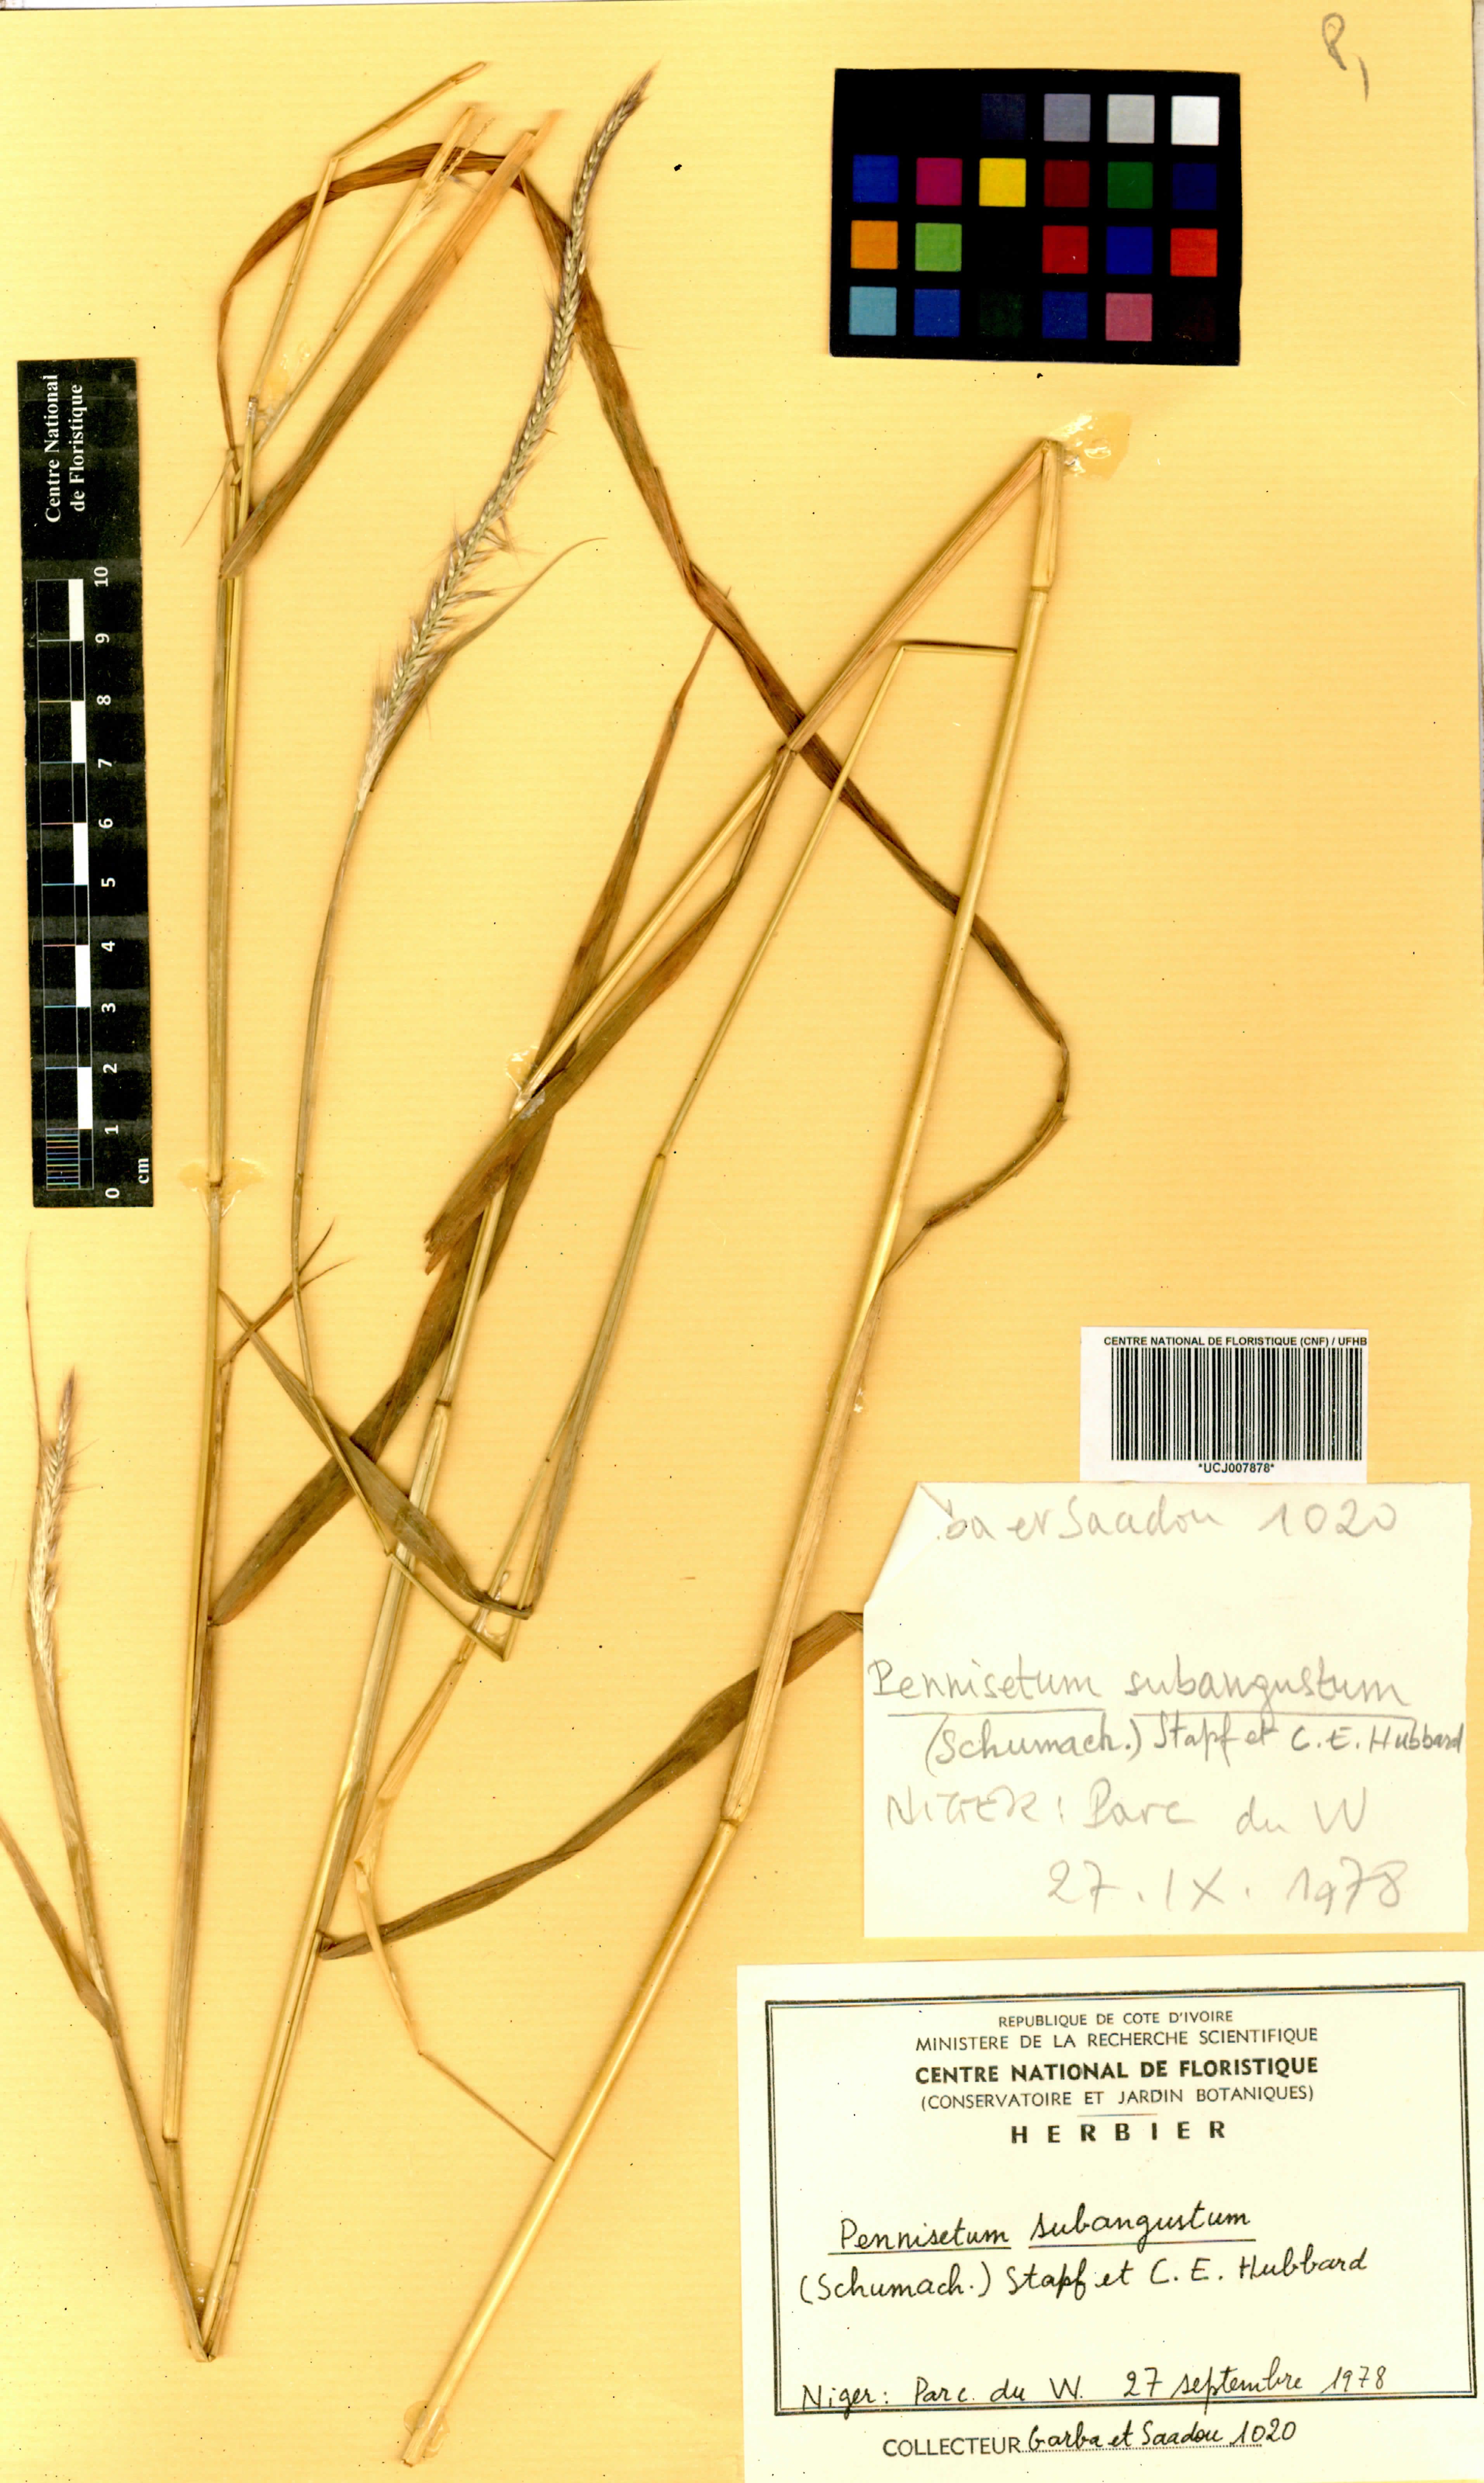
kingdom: Plantae
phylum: Tracheophyta
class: Liliopsida
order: Poales
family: Poaceae
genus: Cenchrus
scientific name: Cenchrus setosus
